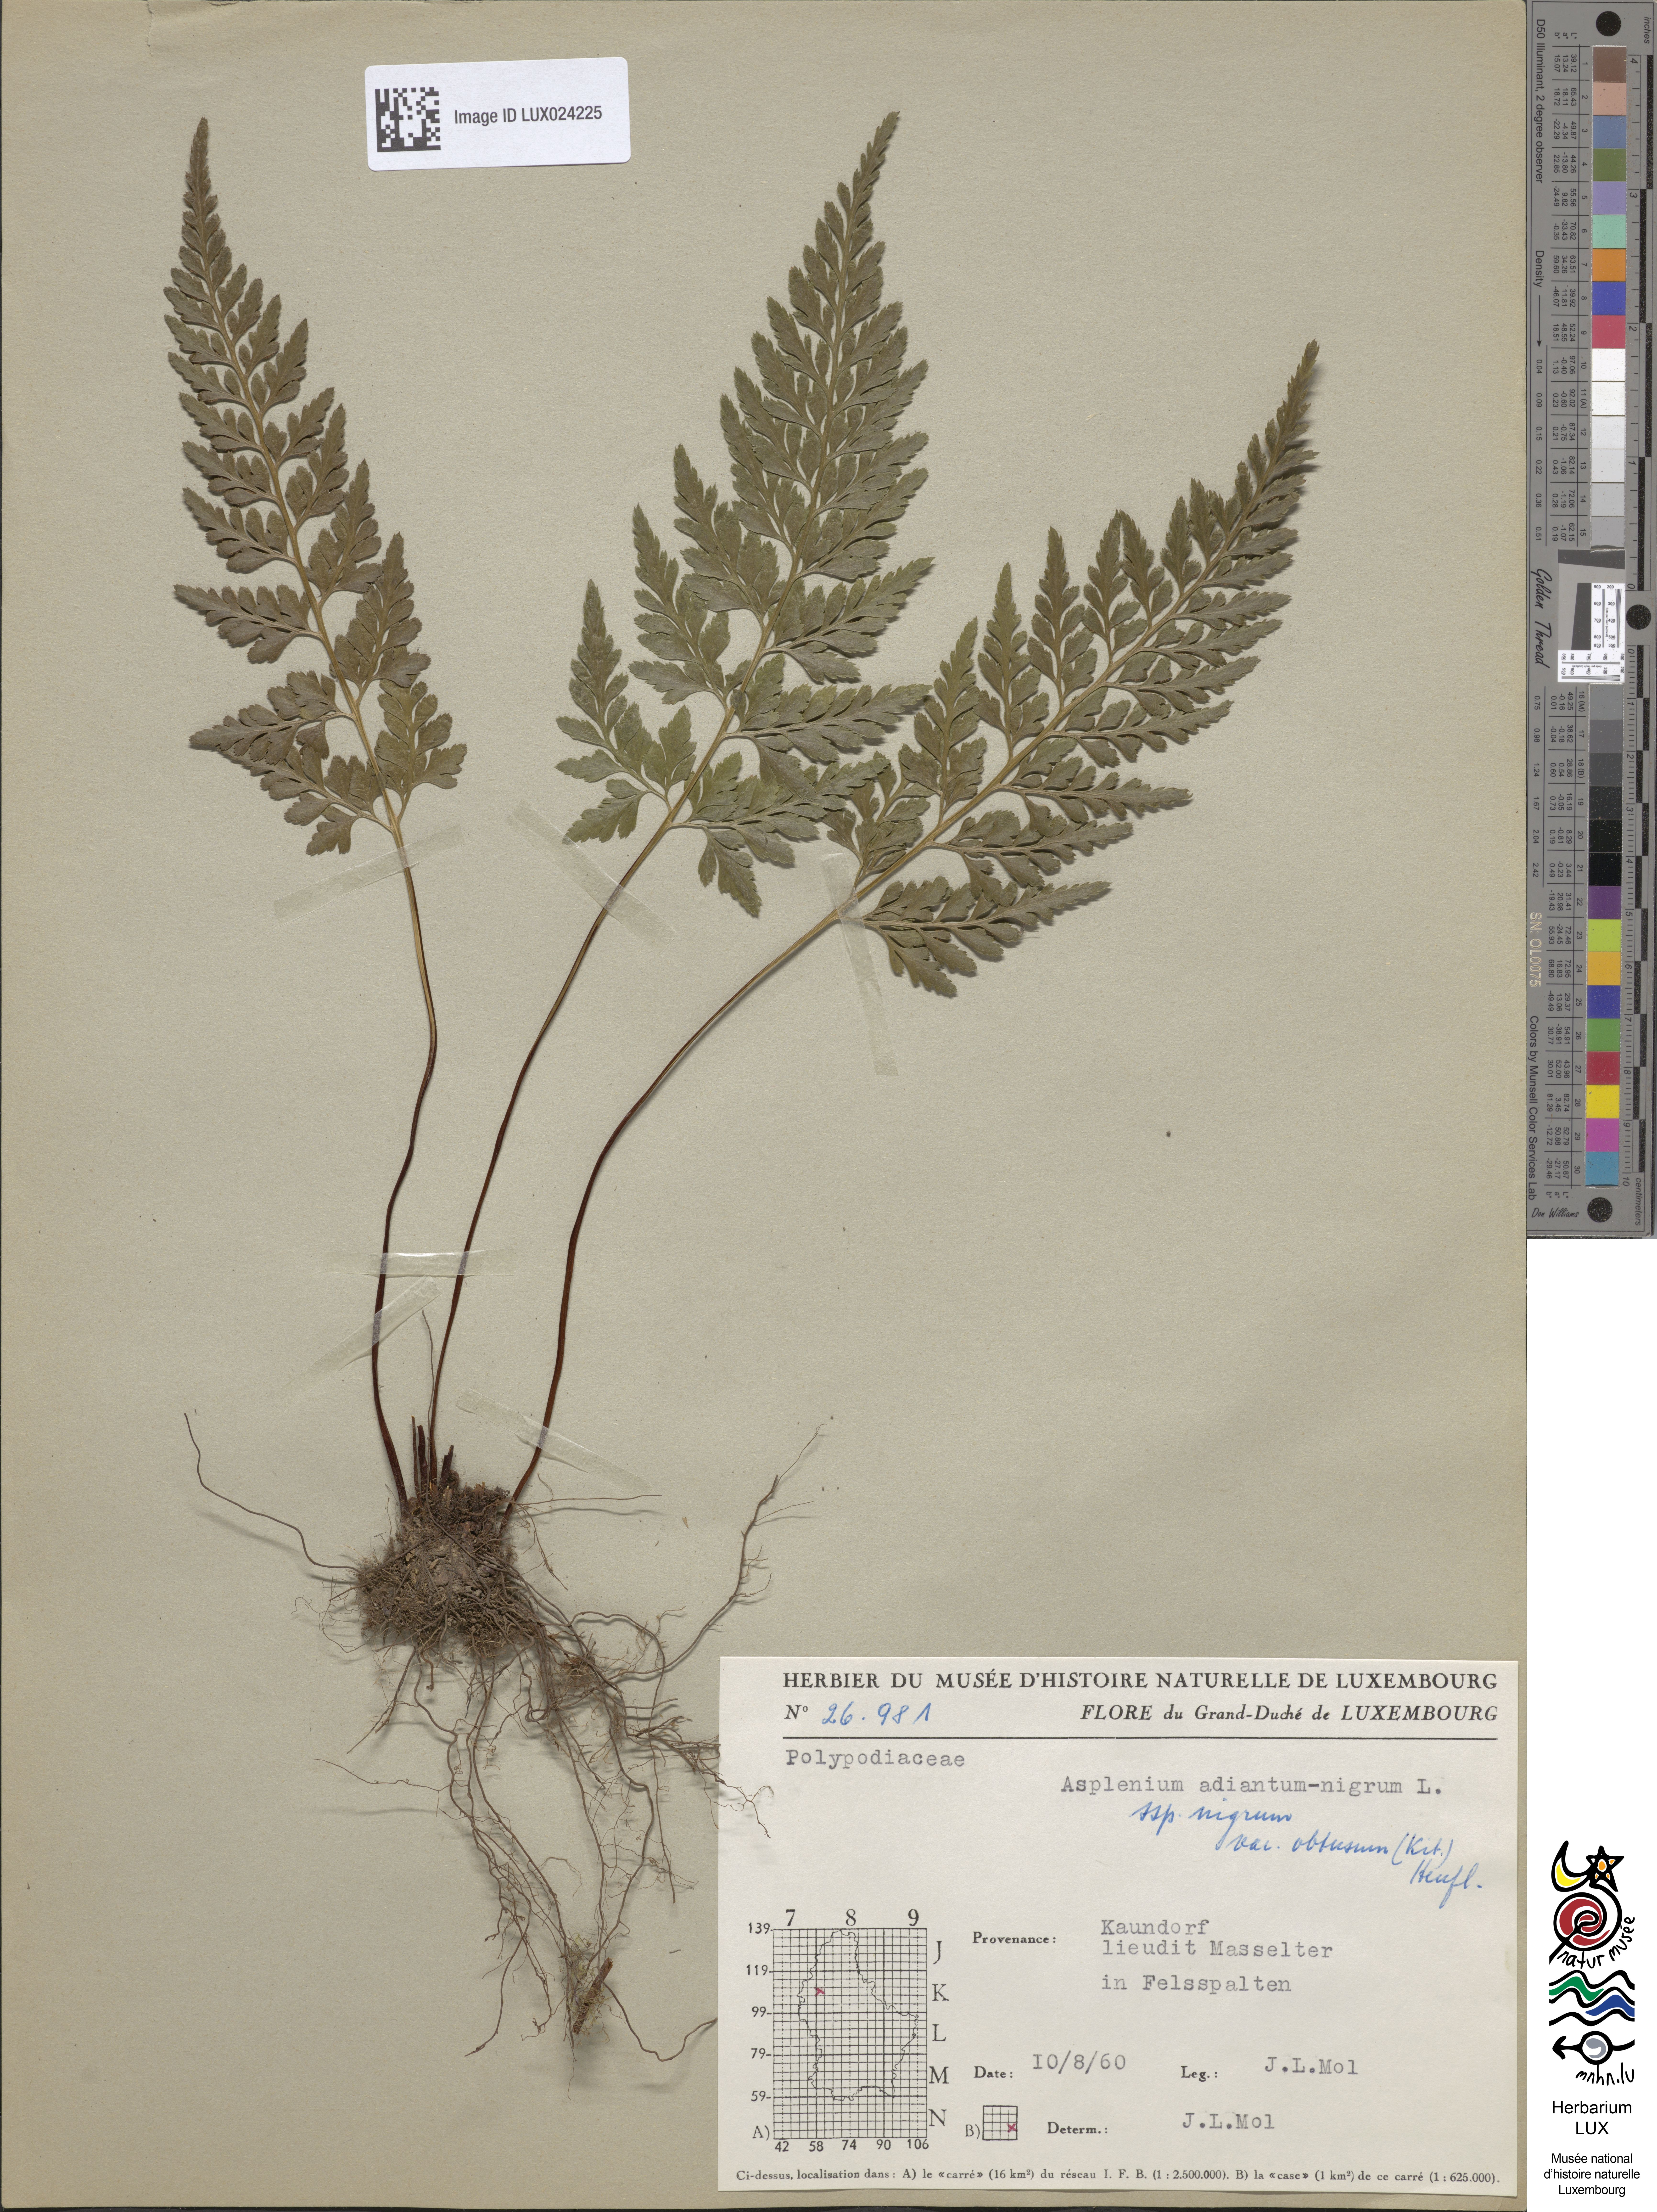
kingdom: Plantae
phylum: Tracheophyta
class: Polypodiopsida
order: Polypodiales
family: Aspleniaceae
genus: Asplenium
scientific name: Asplenium adiantum-nigrum
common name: Black spleenwort
